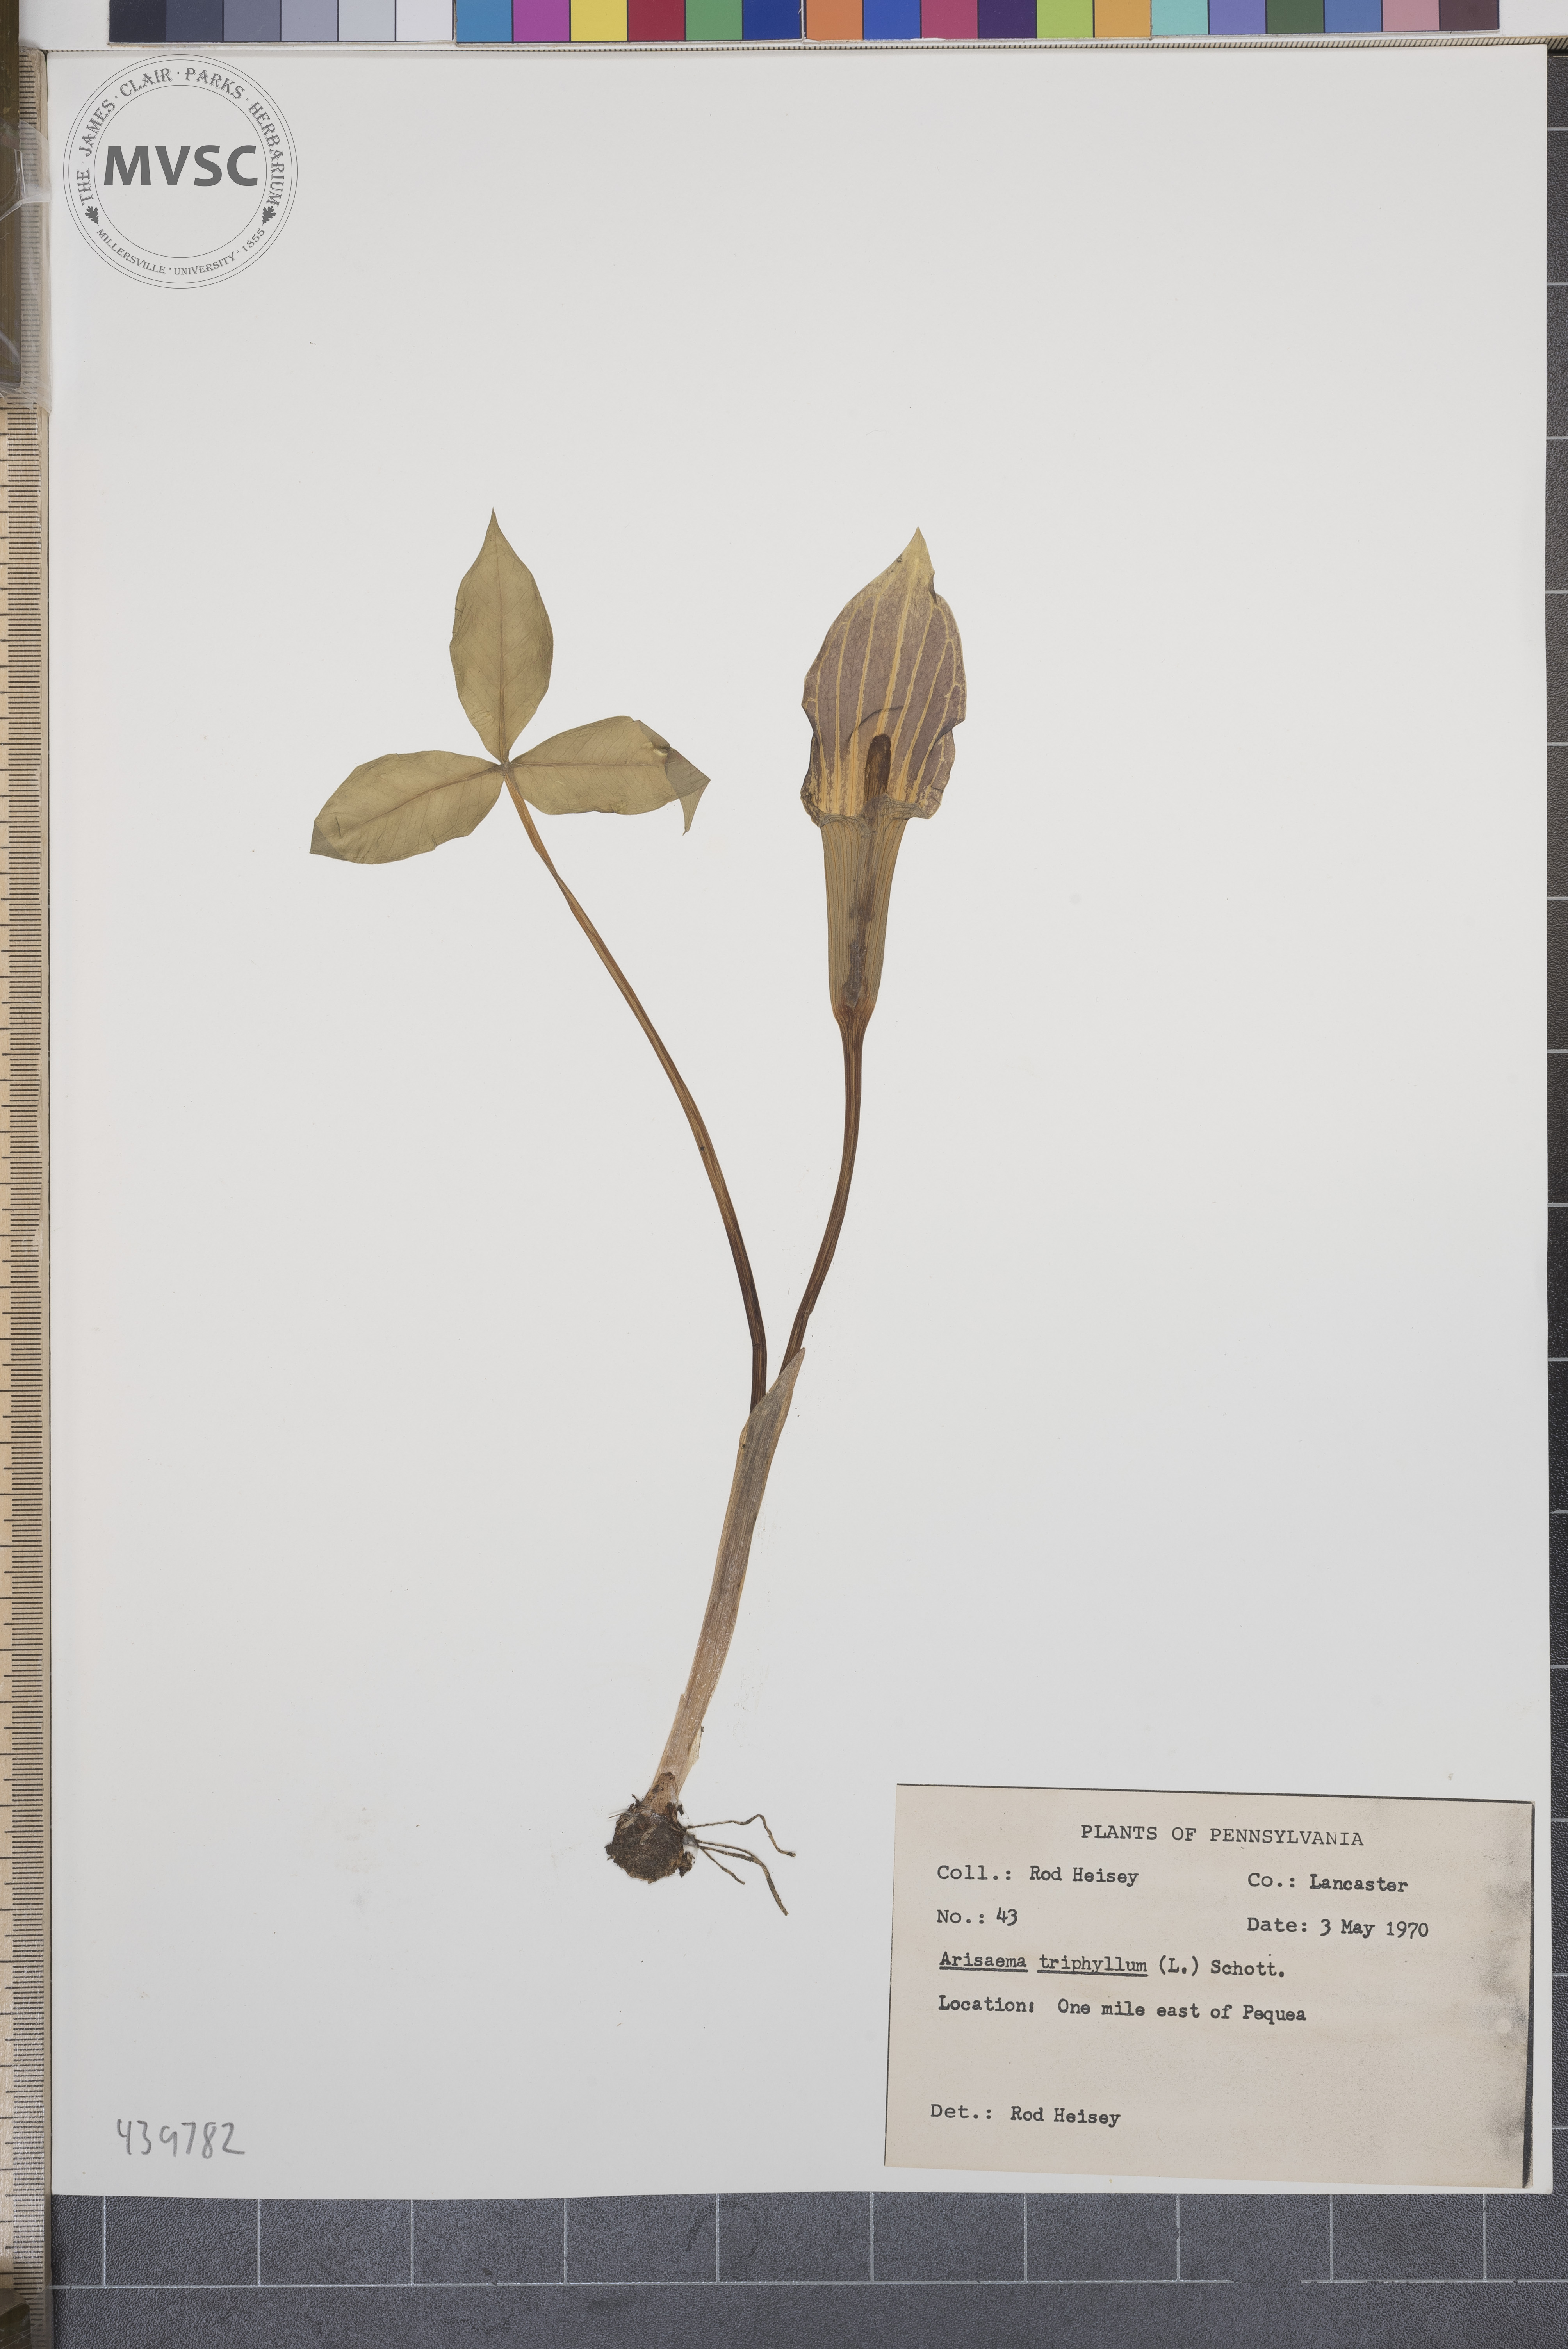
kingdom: Plantae
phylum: Tracheophyta
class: Liliopsida
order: Alismatales
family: Araceae
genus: Arisaema
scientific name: Arisaema triphyllum
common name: Jack-in-the-pulpit
